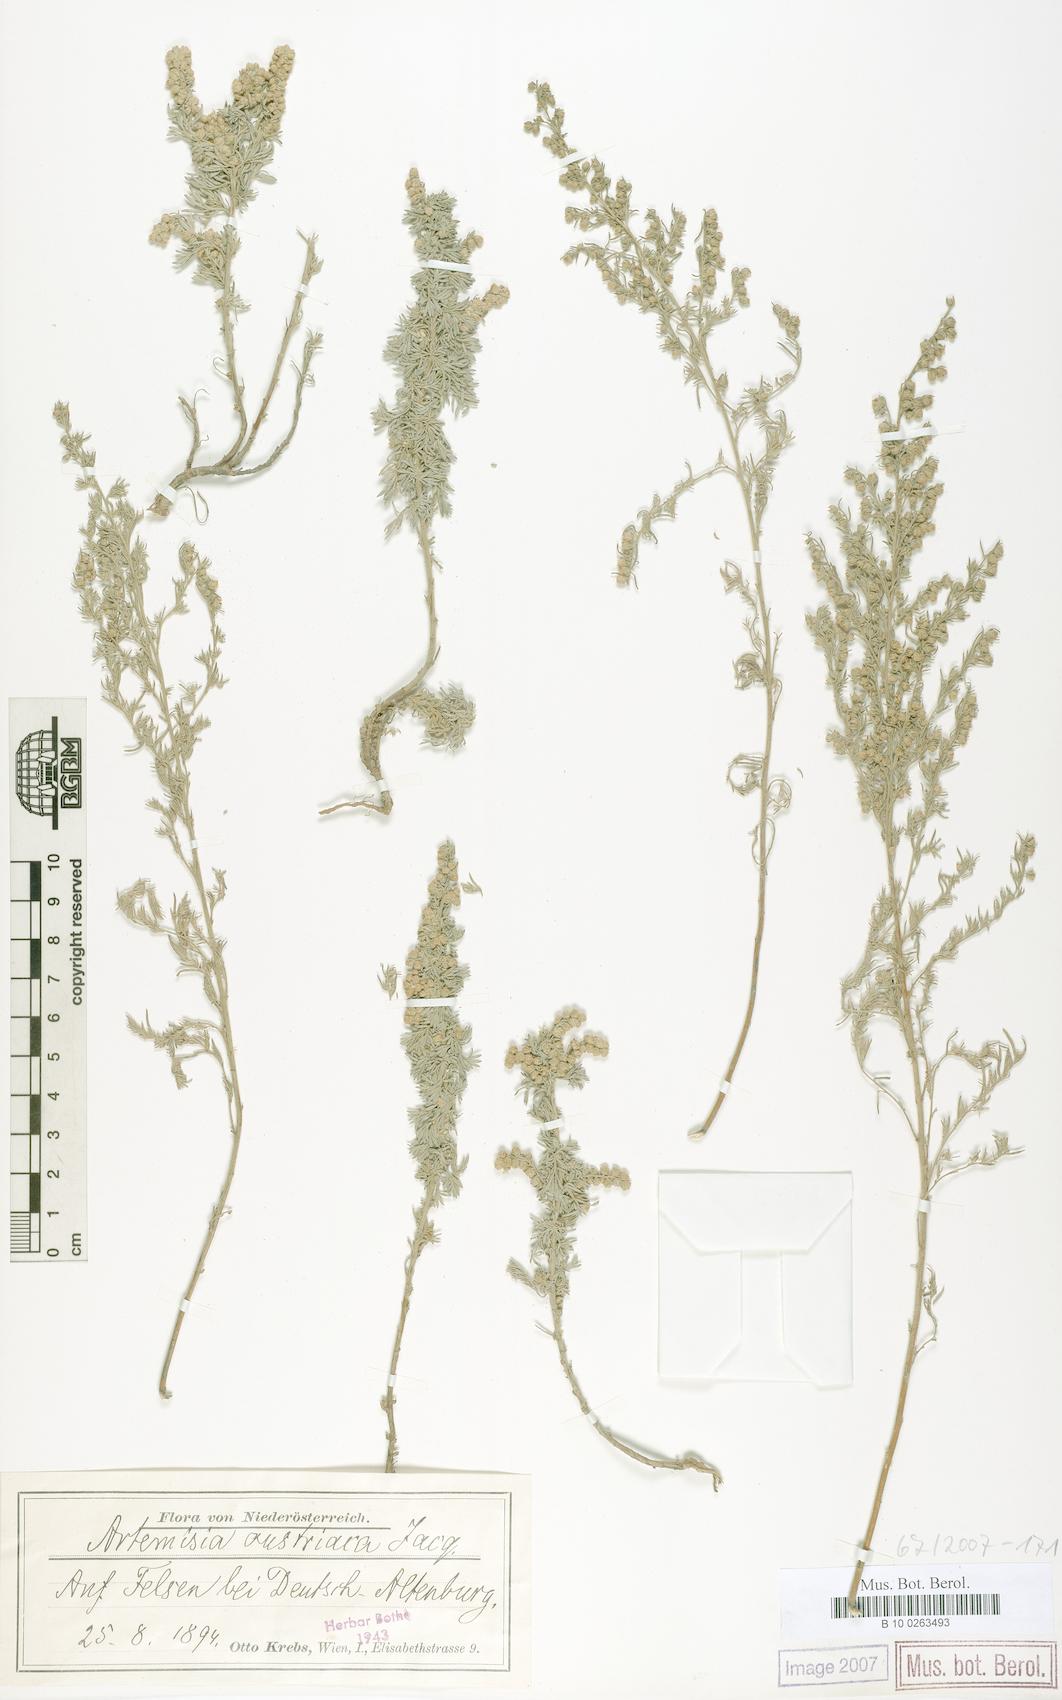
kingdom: Plantae
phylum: Tracheophyta
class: Magnoliopsida
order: Asterales
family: Asteraceae
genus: Artemisia
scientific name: Artemisia austriaca
